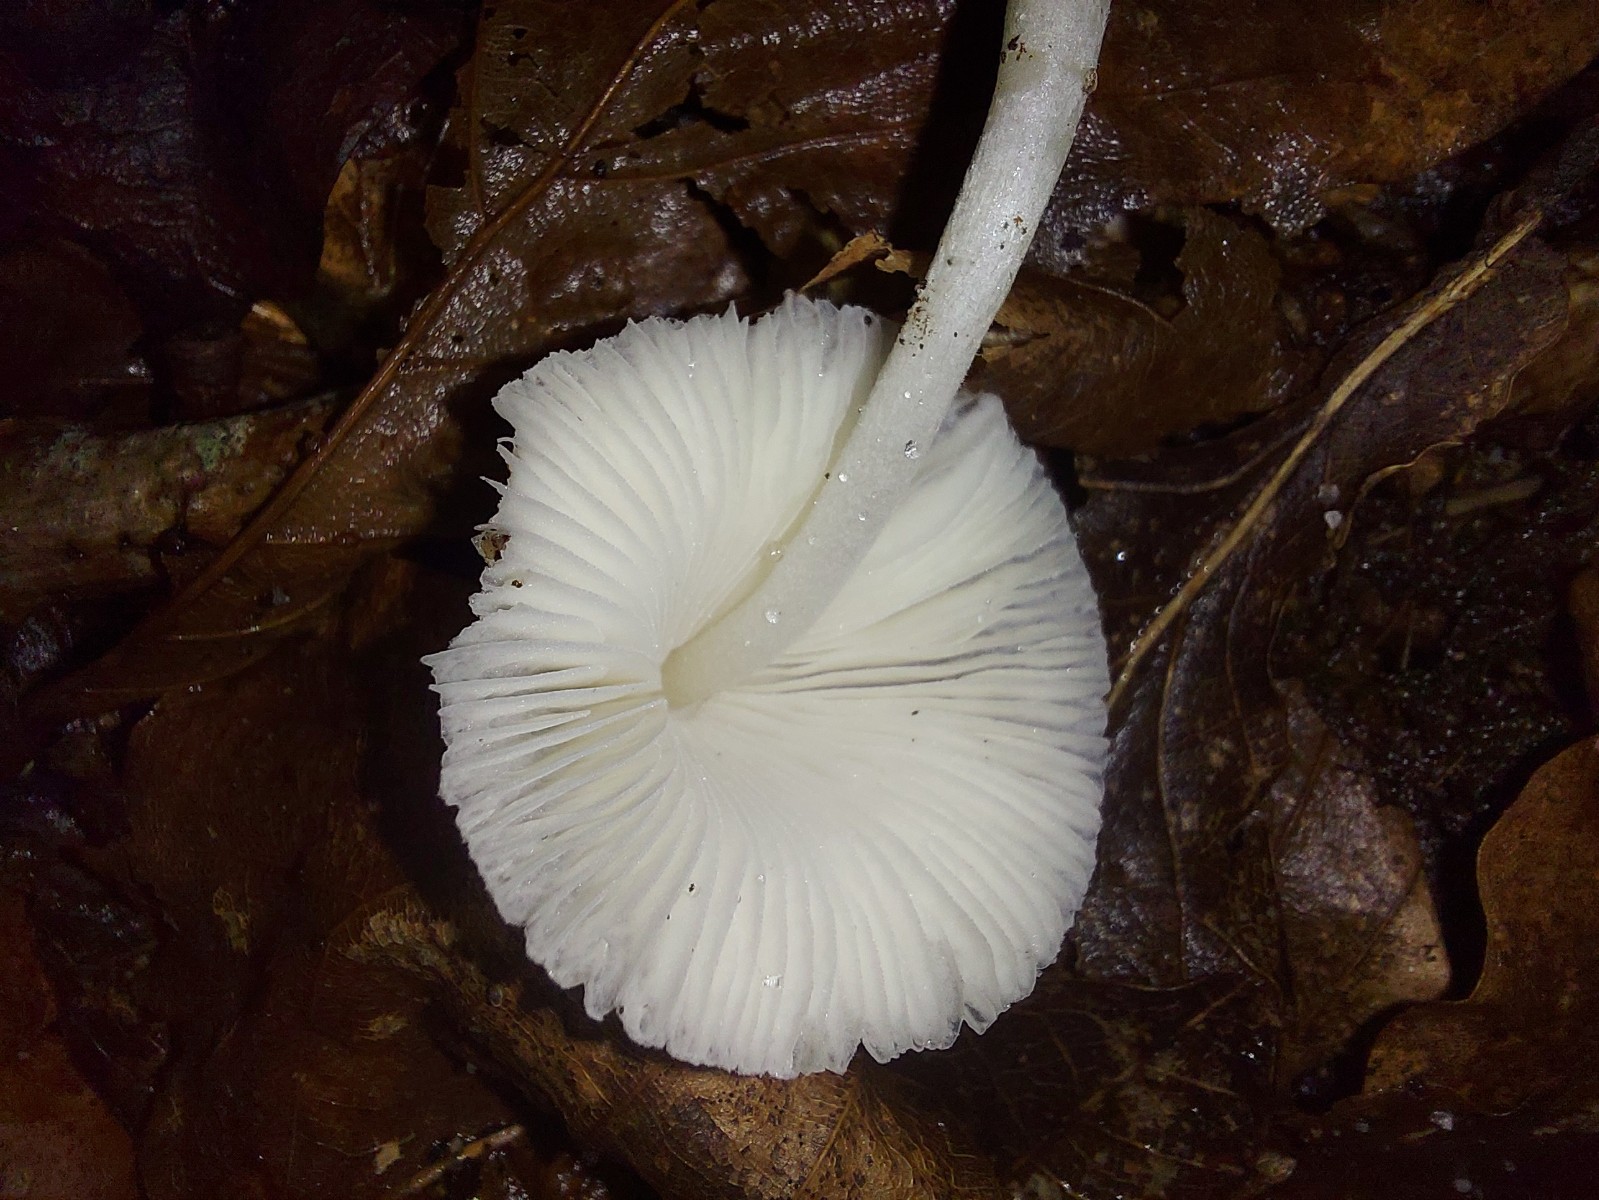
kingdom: Fungi
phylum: Basidiomycota
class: Agaricomycetes
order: Agaricales
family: Agaricaceae
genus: Leucocoprinus
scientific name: Leucocoprinus brebissonii
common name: gråsort silkehat
